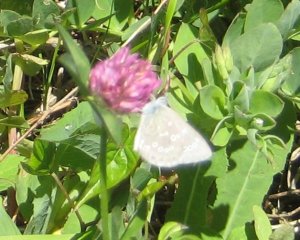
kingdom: Animalia
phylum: Arthropoda
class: Insecta
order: Lepidoptera
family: Lycaenidae
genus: Glaucopsyche
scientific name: Glaucopsyche lygdamus
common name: Silvery Blue
